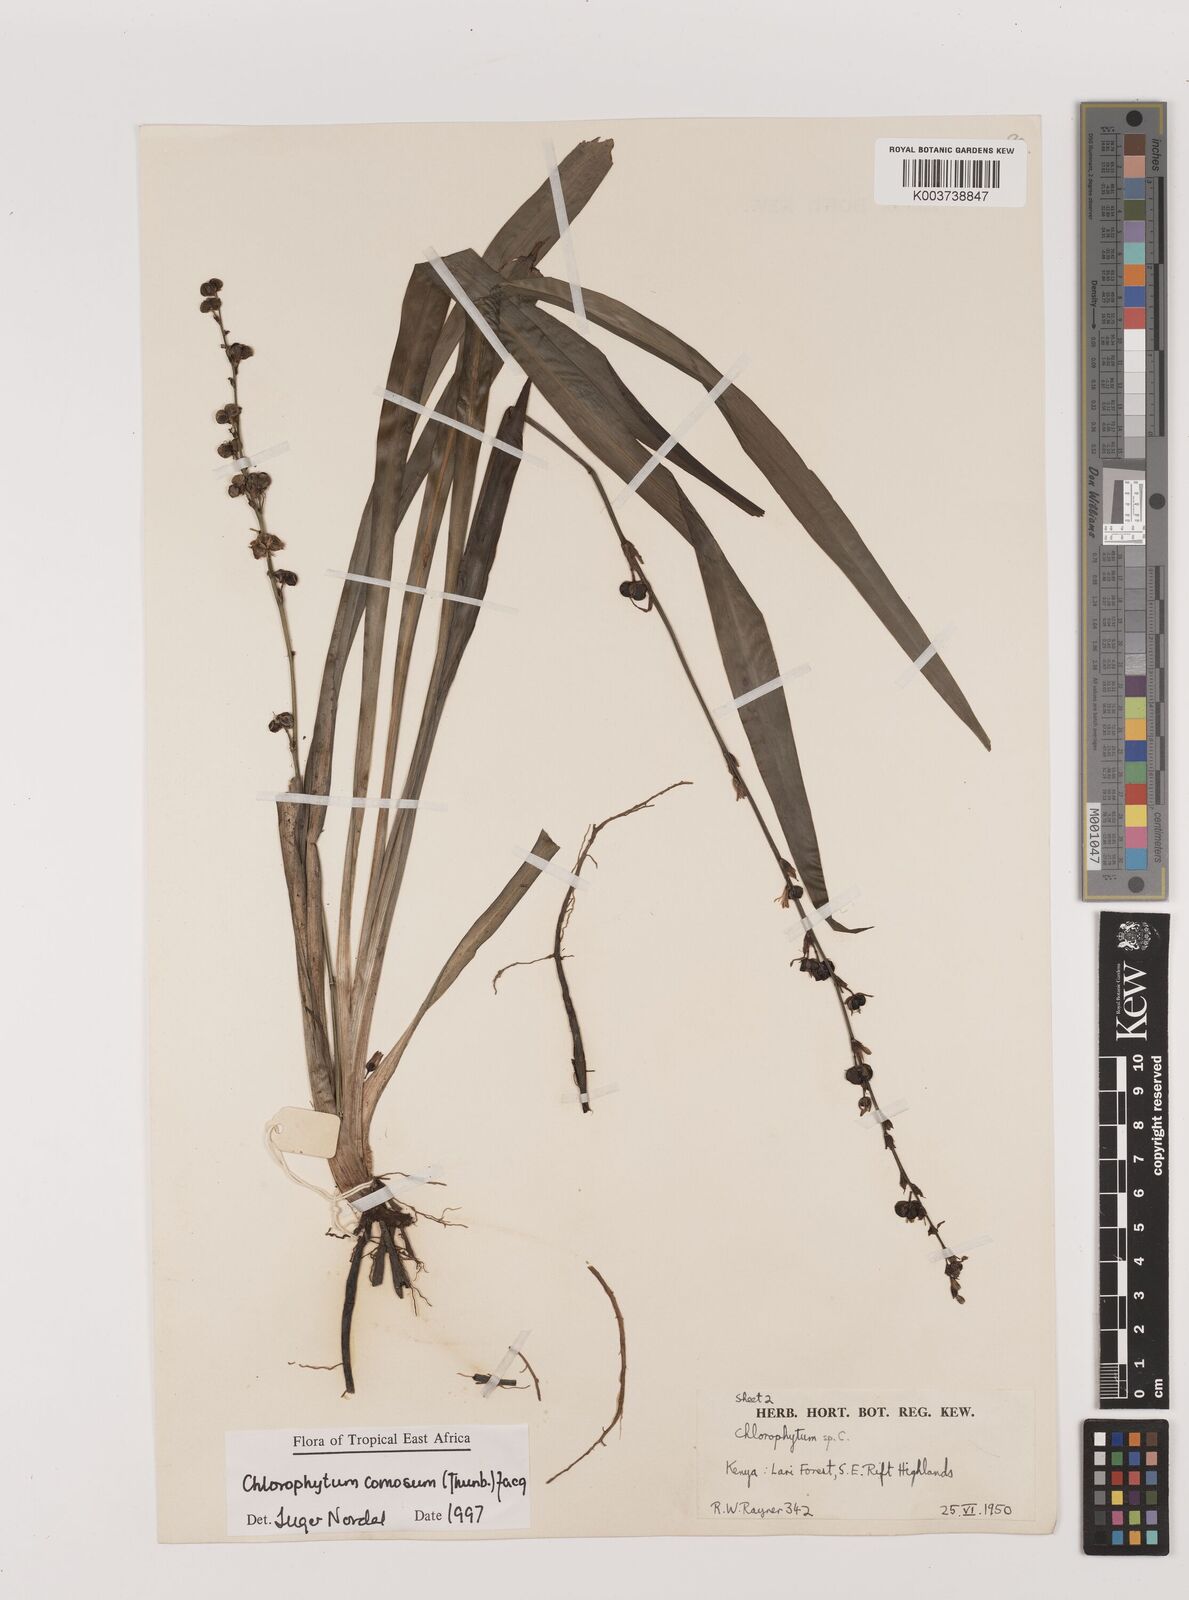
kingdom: Plantae
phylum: Tracheophyta
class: Liliopsida
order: Asparagales
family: Asparagaceae
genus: Chlorophytum
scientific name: Chlorophytum comosum
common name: Spider plant
